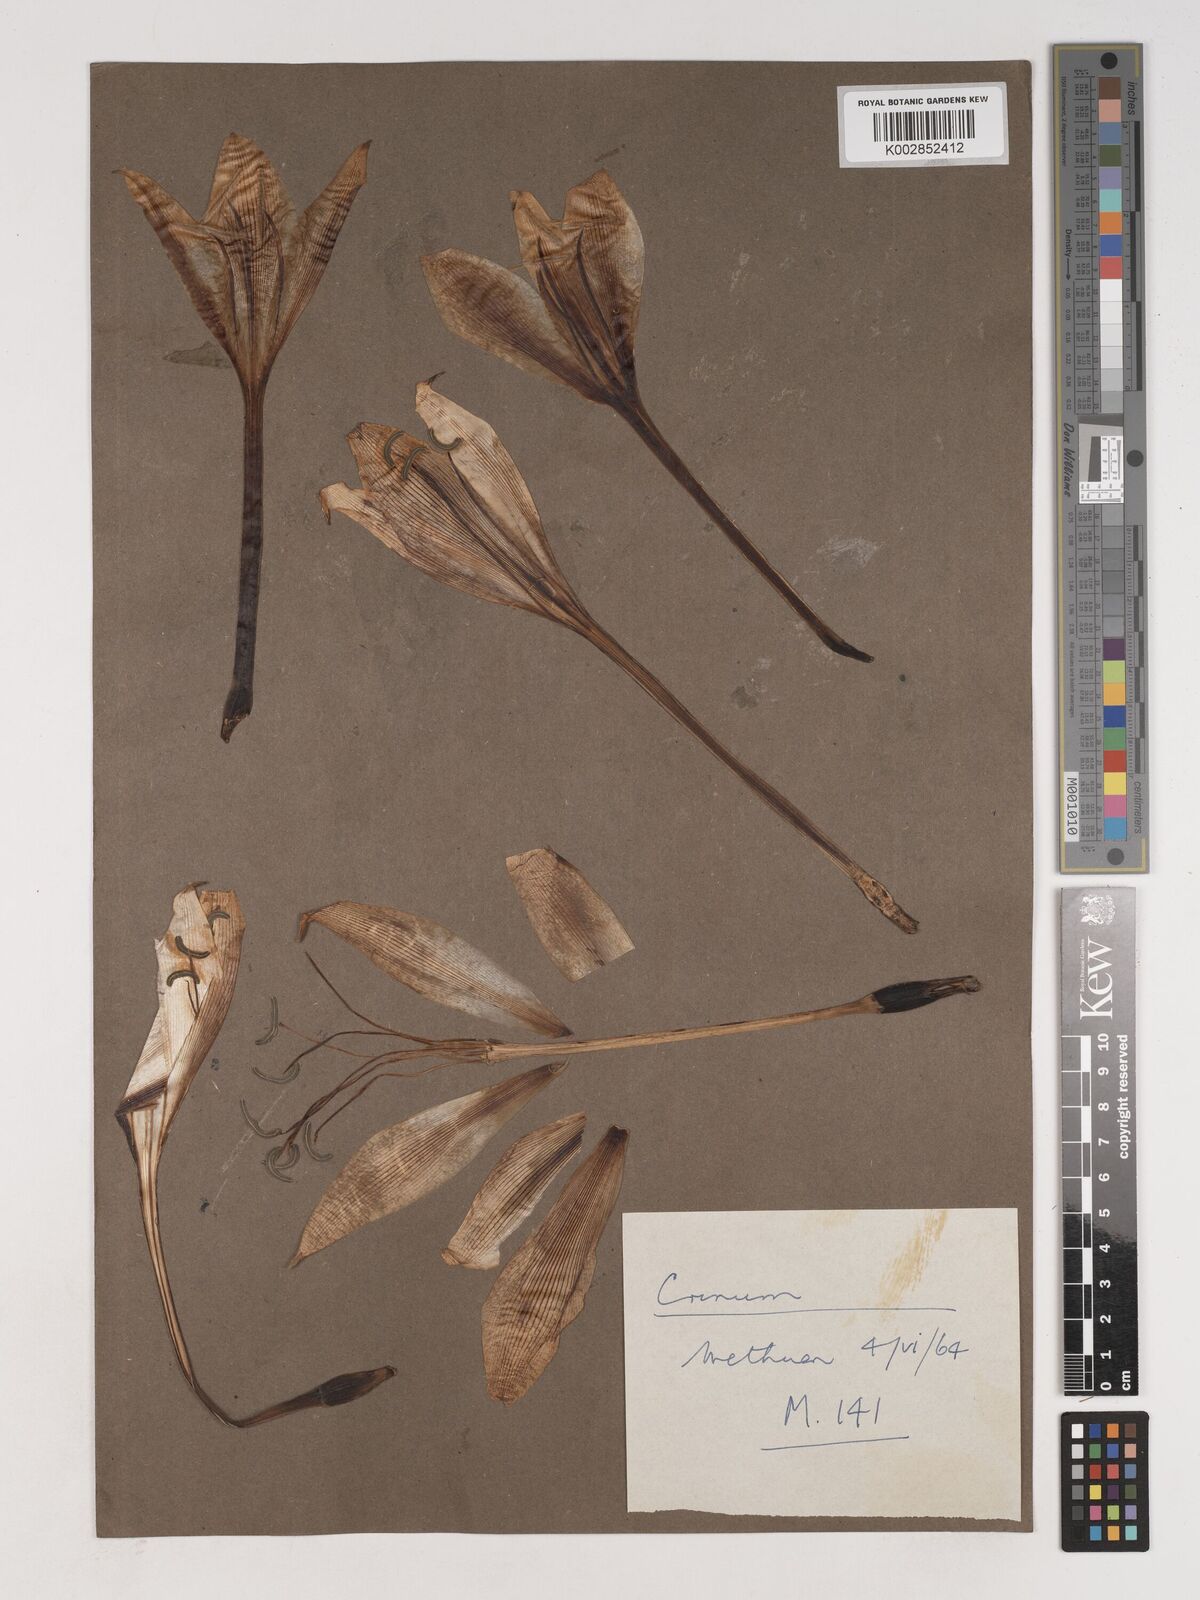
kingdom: Plantae
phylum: Tracheophyta
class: Liliopsida
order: Asparagales
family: Amaryllidaceae
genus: Crinum
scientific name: Crinum
